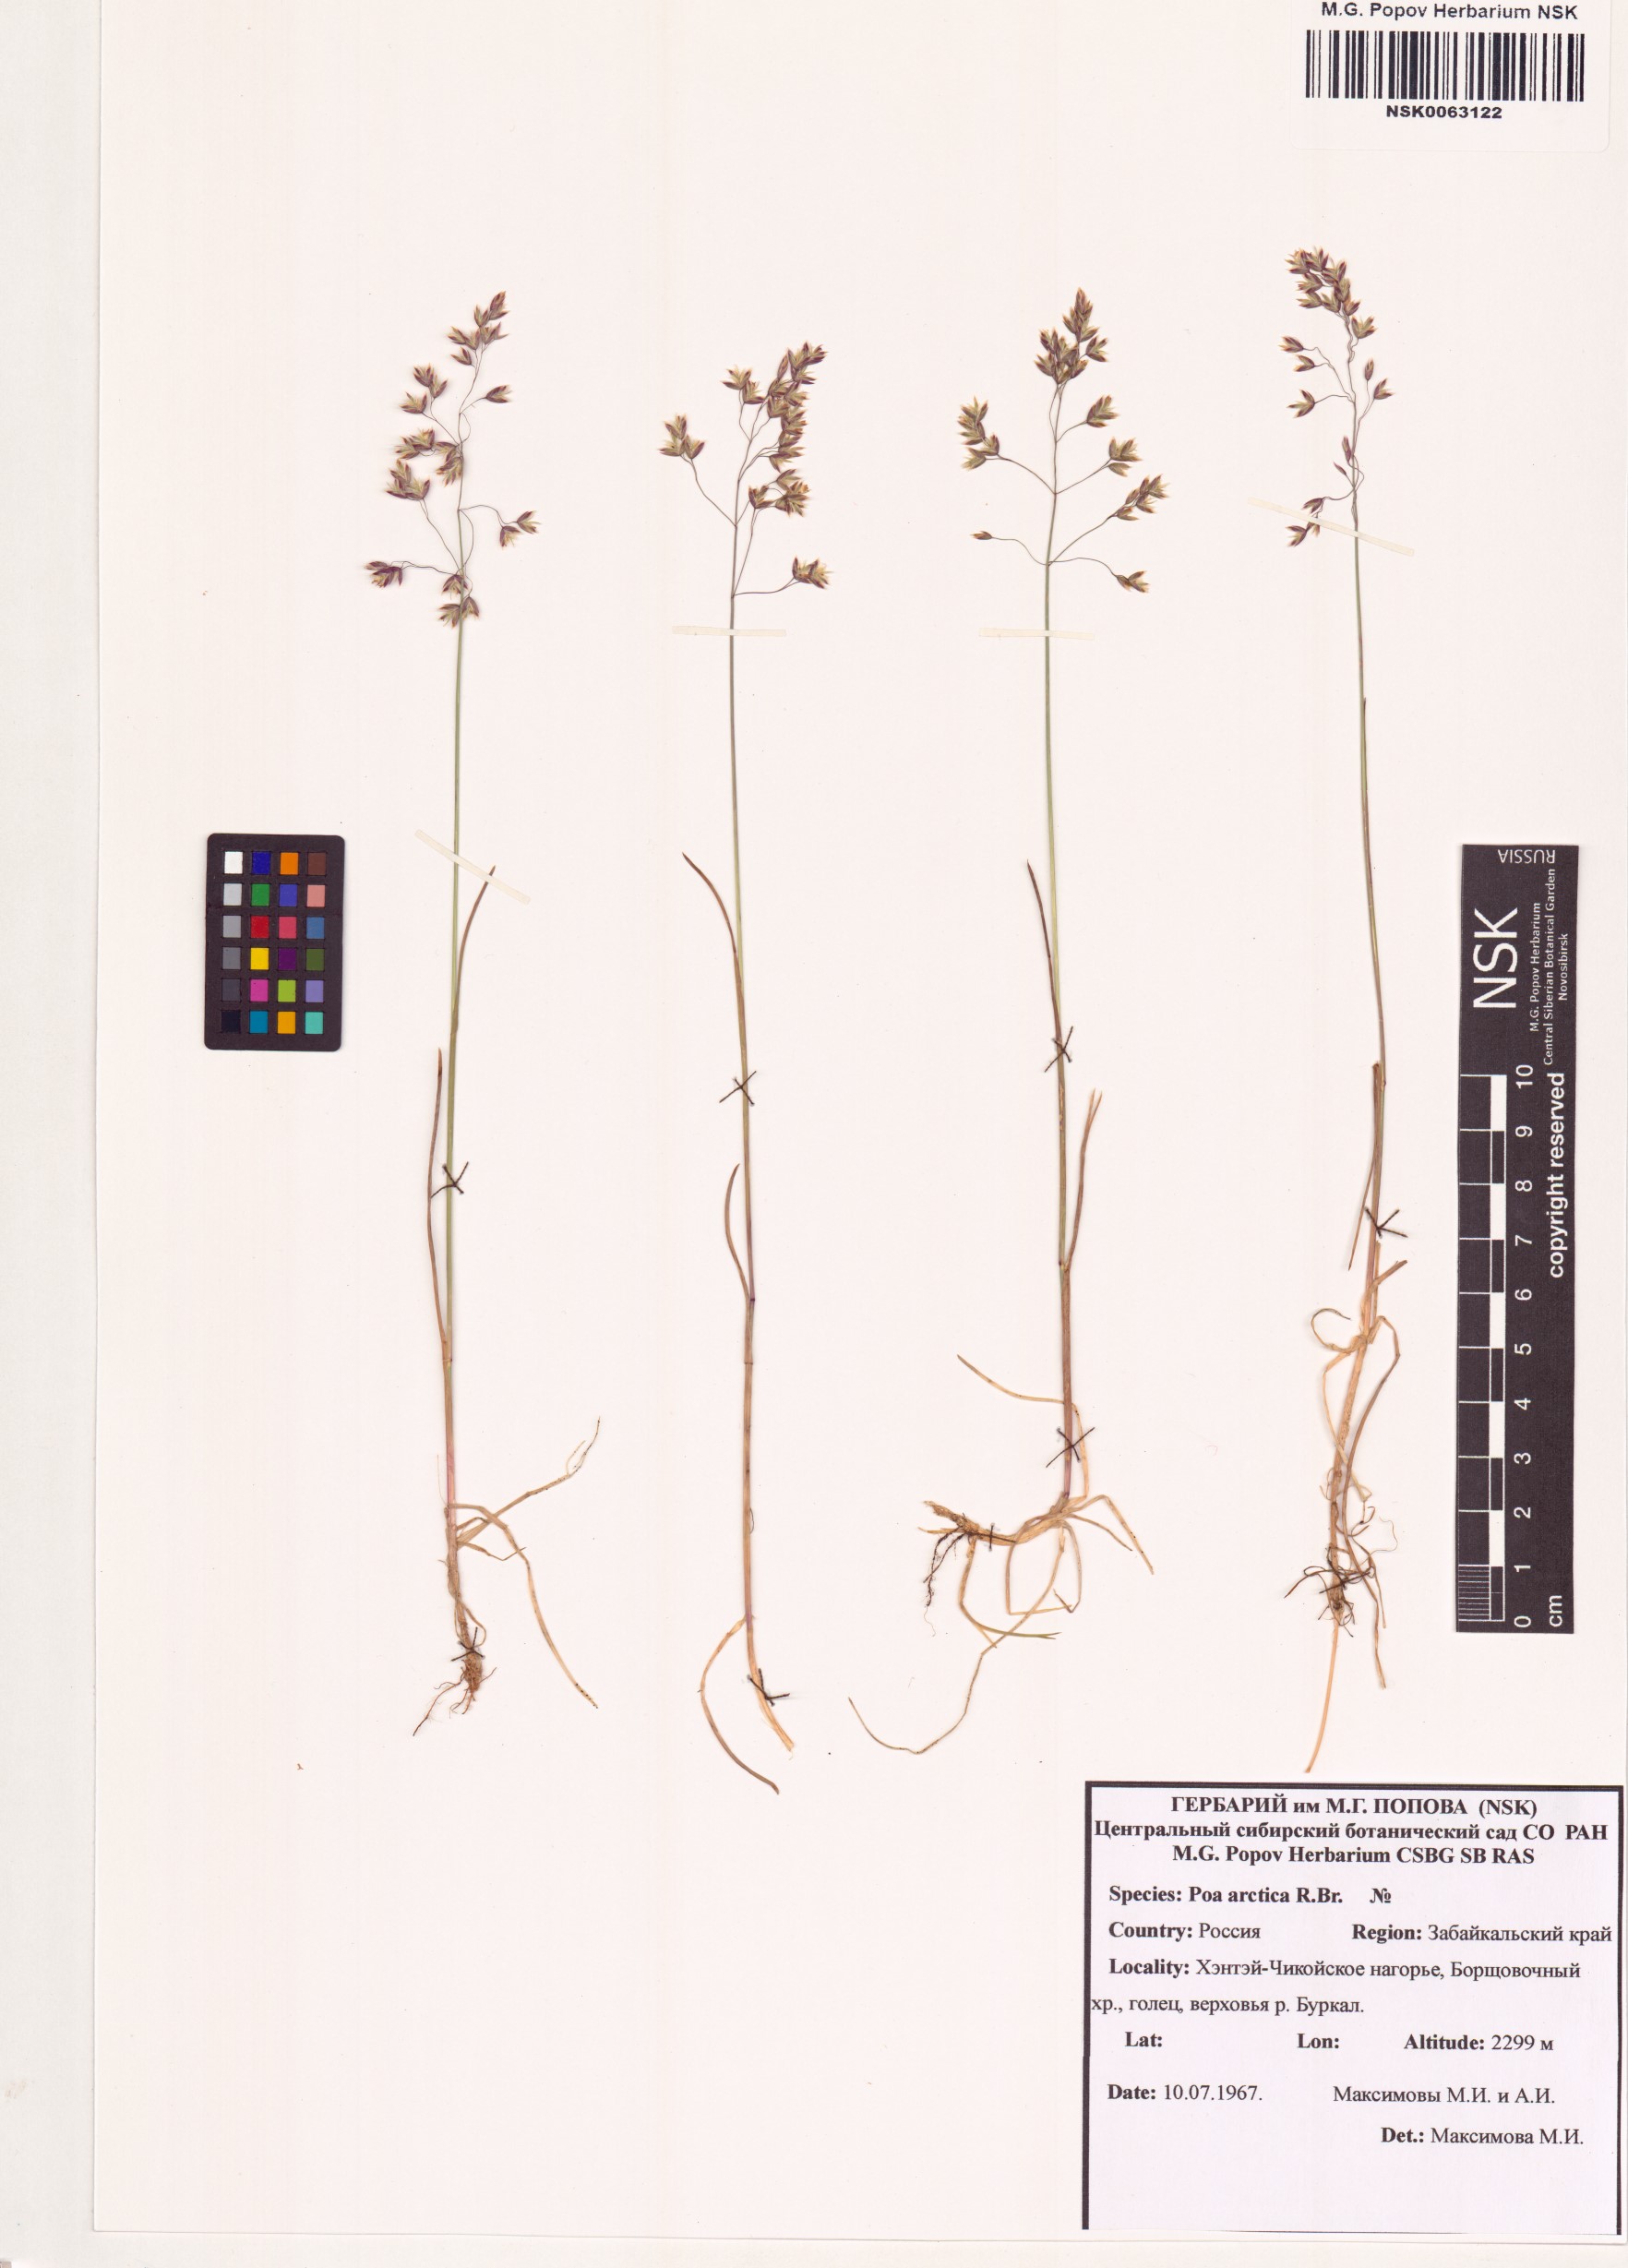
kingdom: Plantae
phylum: Tracheophyta
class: Liliopsida
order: Poales
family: Poaceae
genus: Poa
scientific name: Poa arctica
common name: Arctic bluegrass
